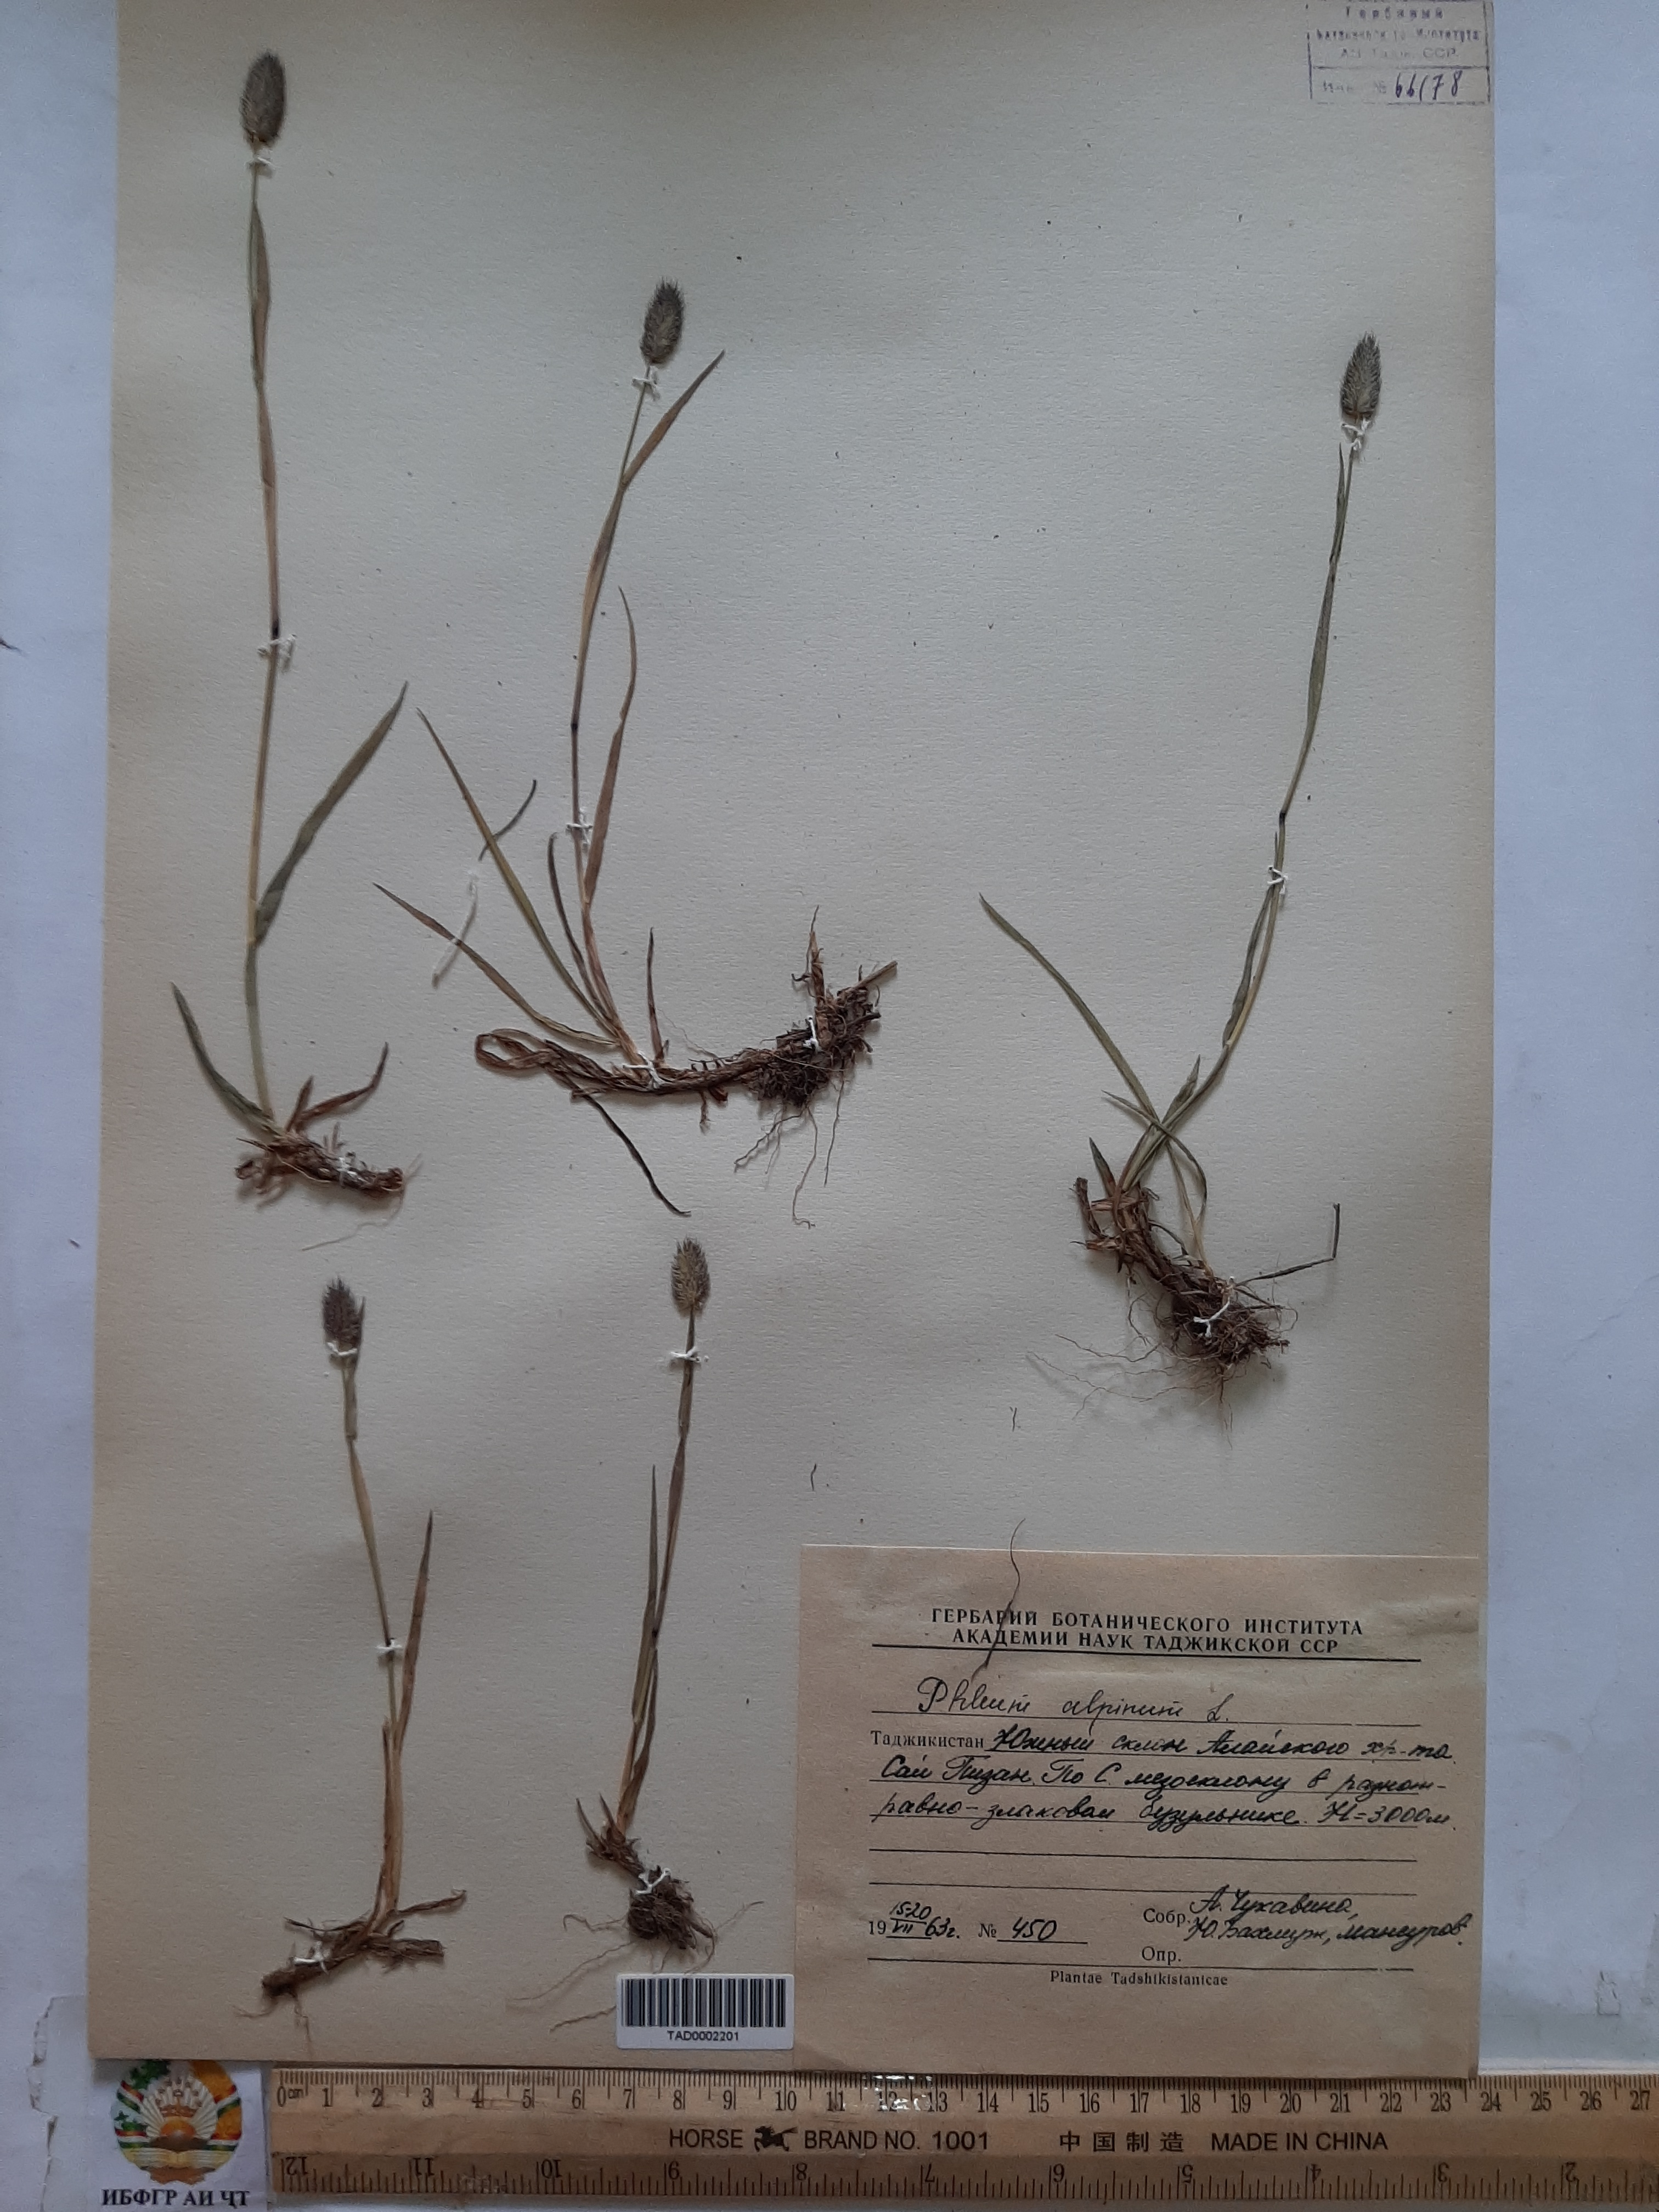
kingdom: Plantae
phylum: Tracheophyta
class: Liliopsida
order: Poales
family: Poaceae
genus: Phleum
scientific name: Phleum alpinum
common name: Alpine cat's-tail
